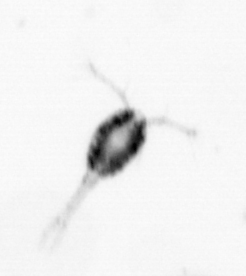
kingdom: Animalia
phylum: Arthropoda
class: Copepoda
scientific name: Copepoda
